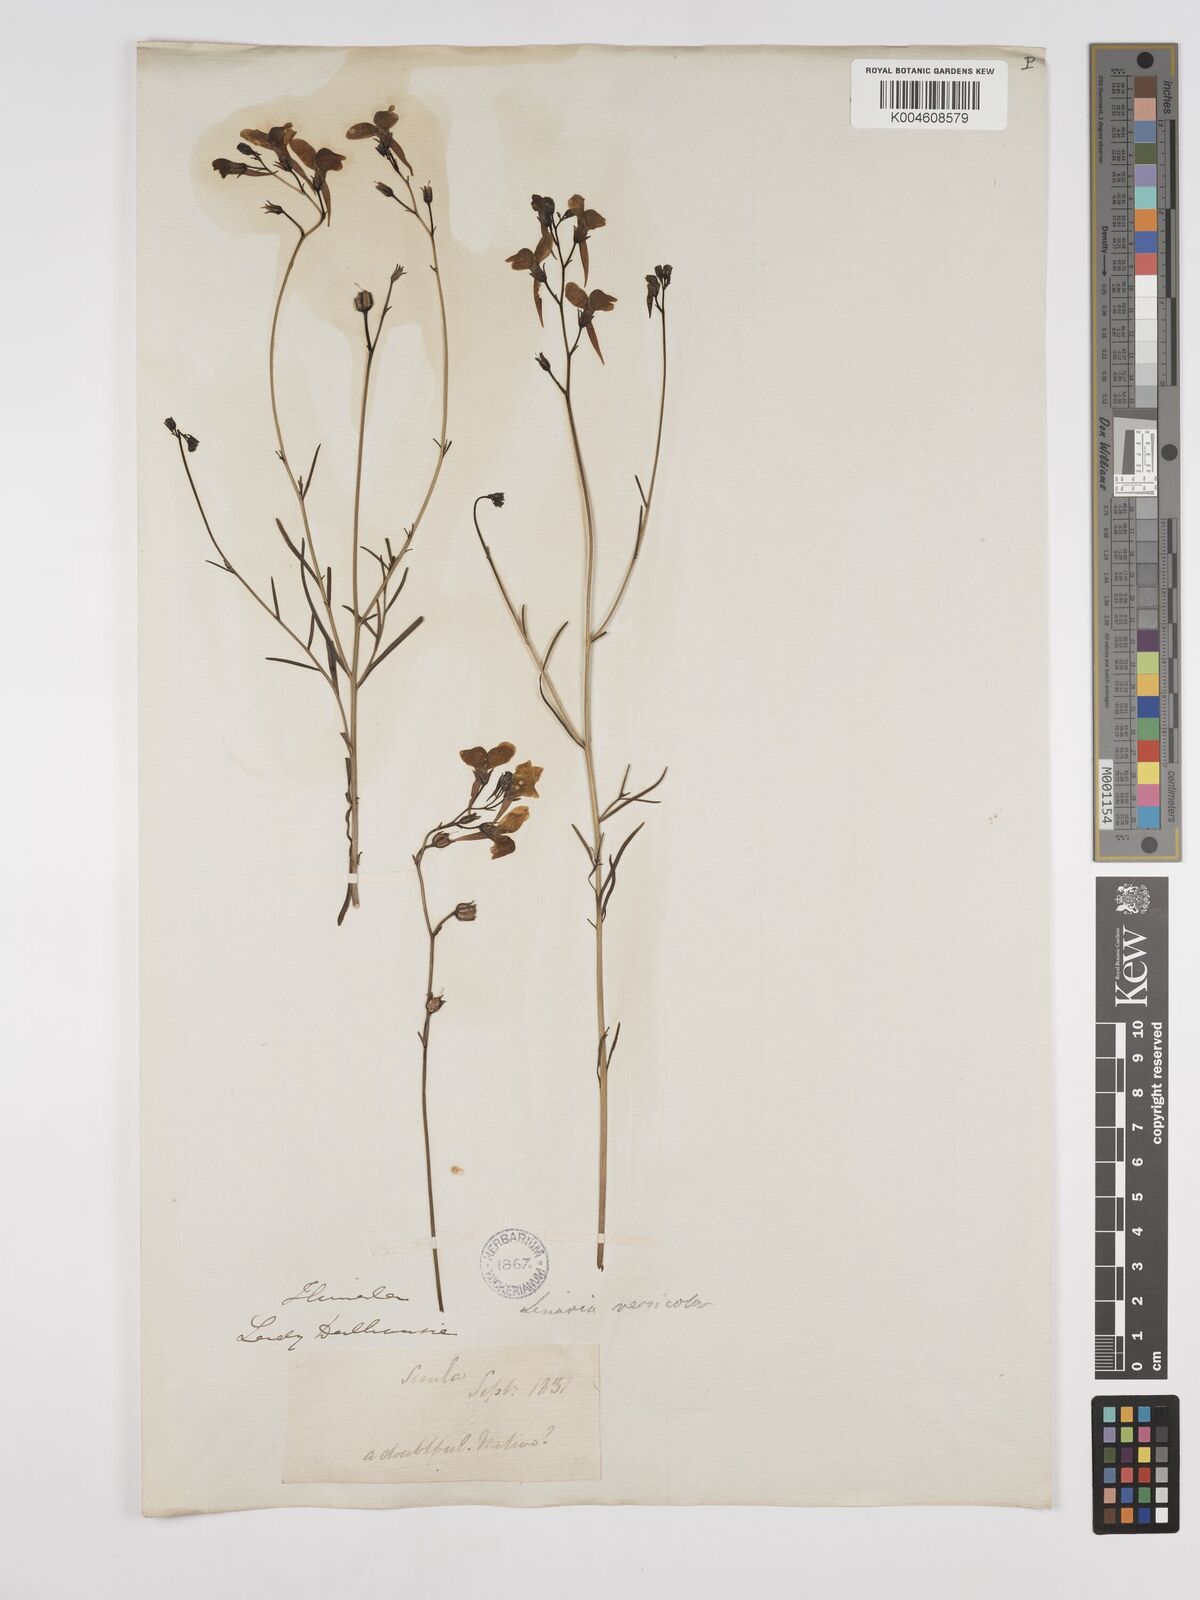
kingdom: Plantae
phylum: Tracheophyta
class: Magnoliopsida
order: Lamiales
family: Plantaginaceae
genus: Kickxia
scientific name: Kickxia
